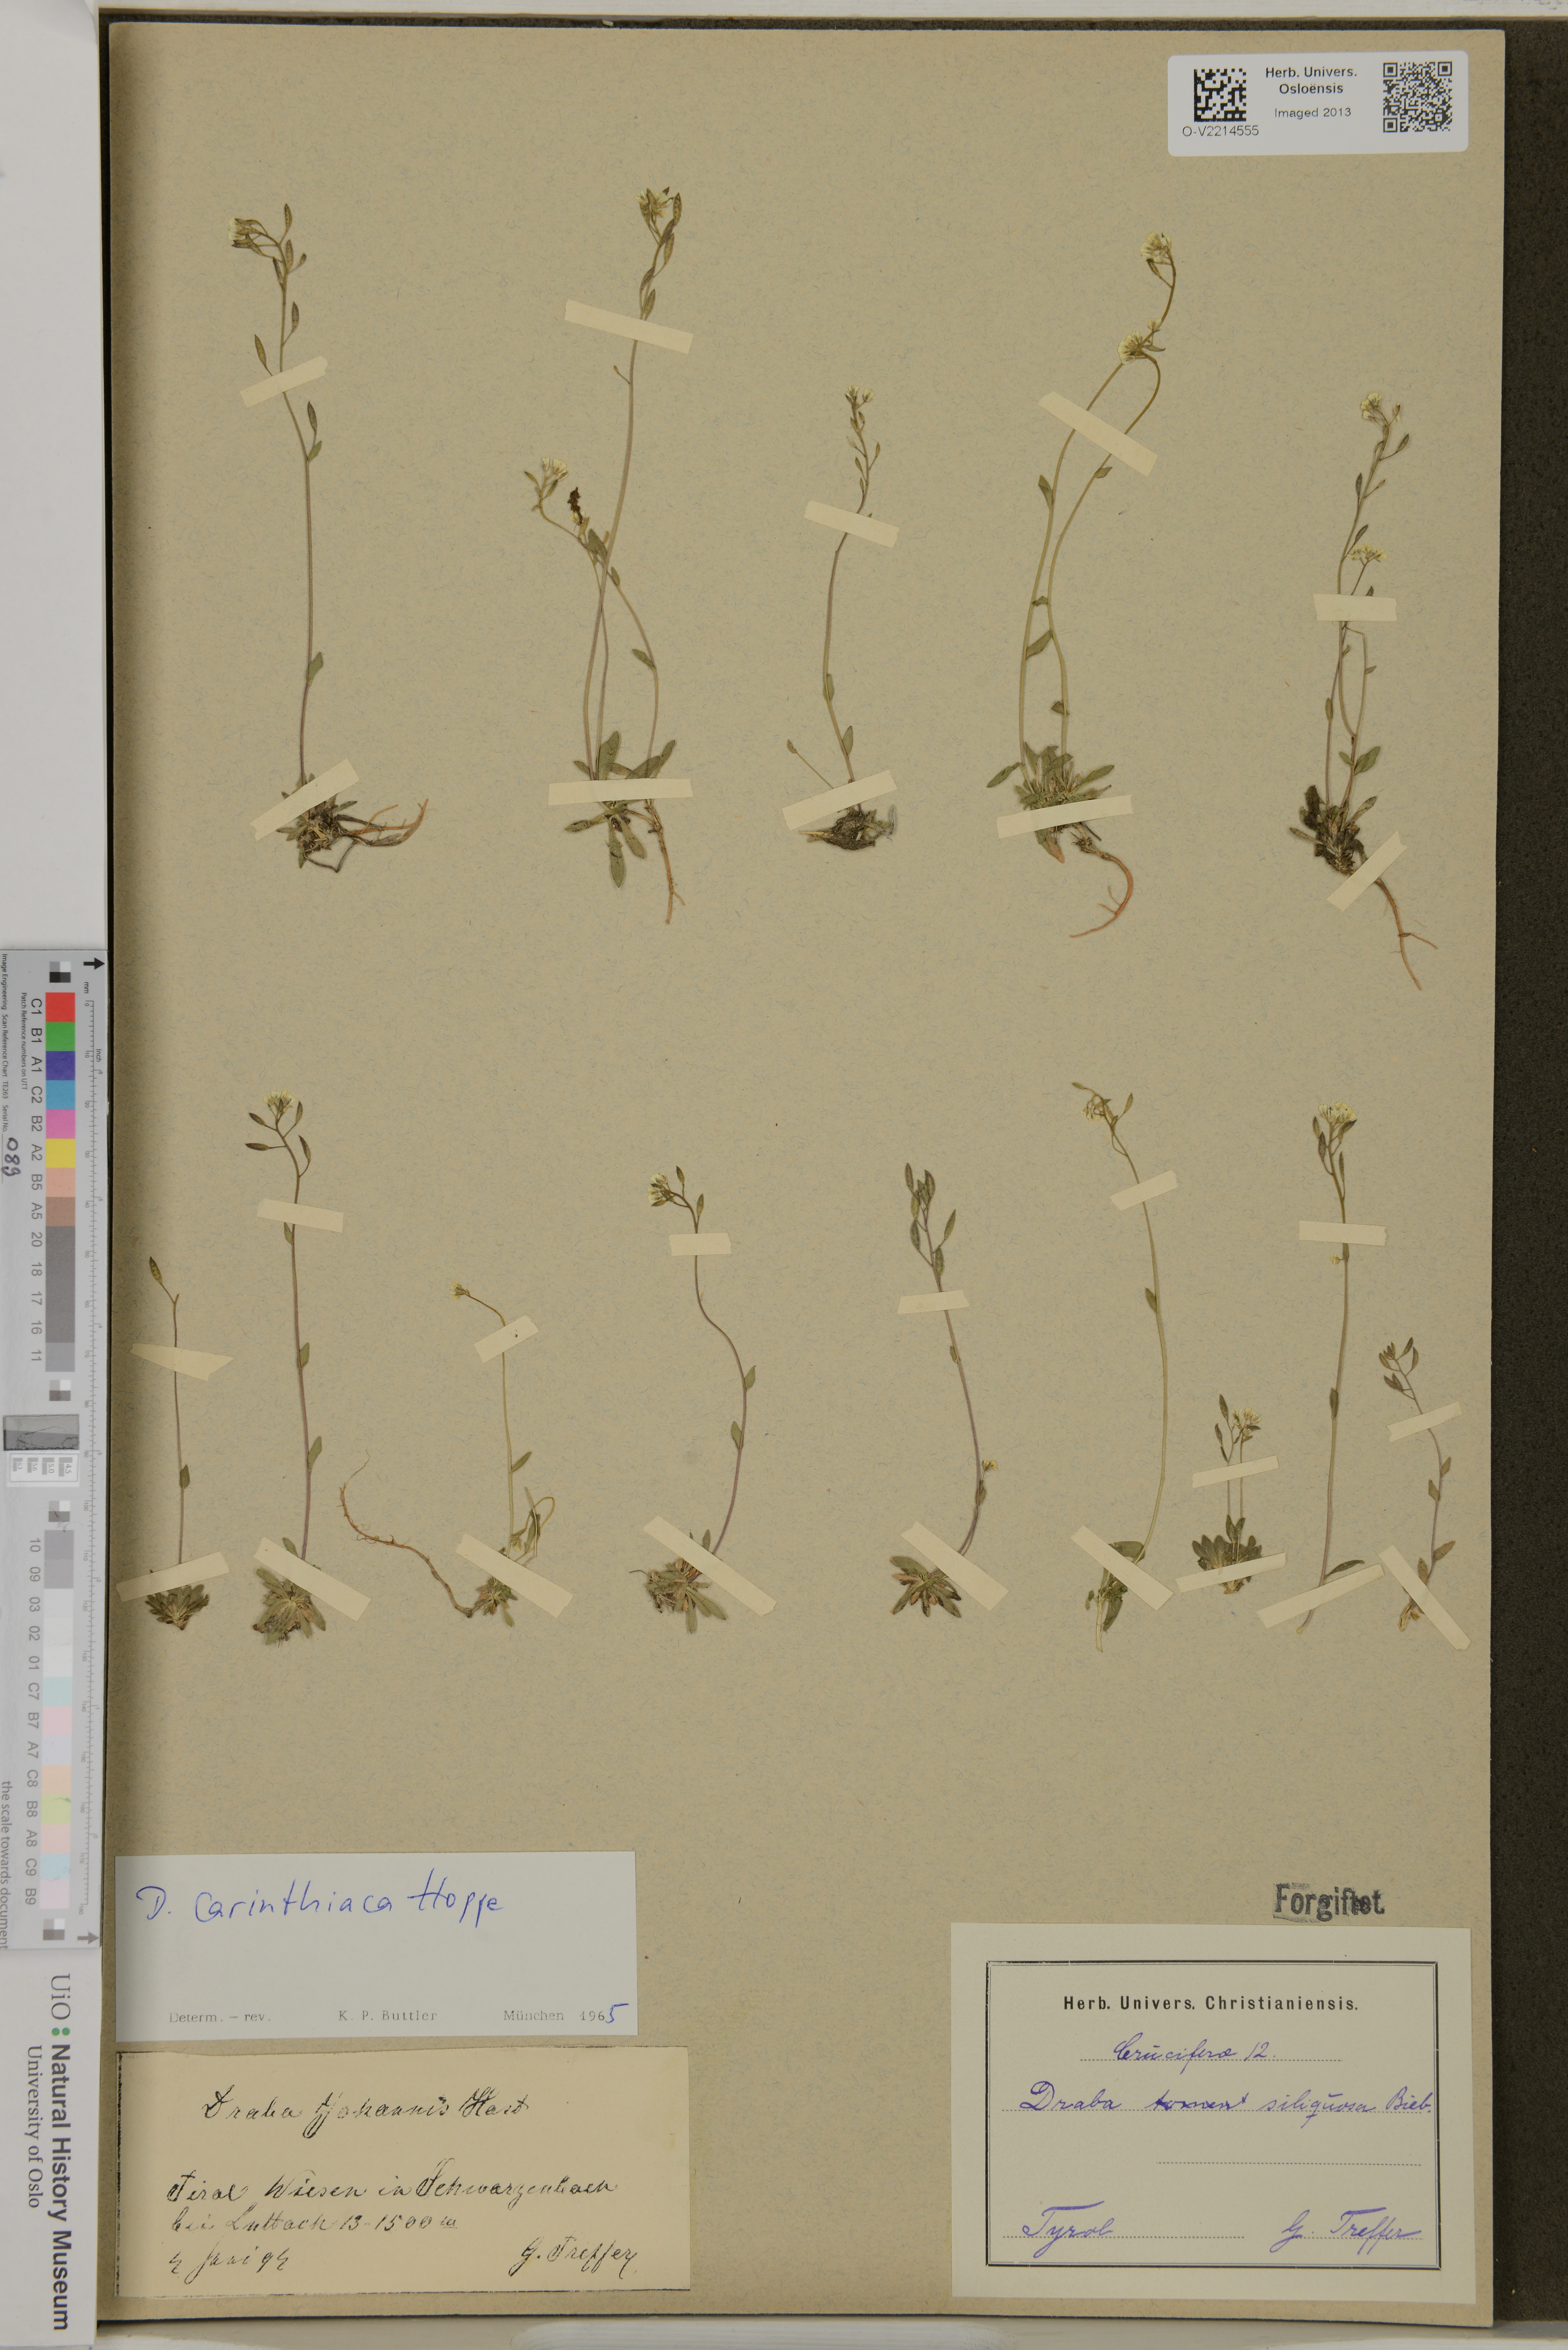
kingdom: Plantae
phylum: Tracheophyta
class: Magnoliopsida
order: Brassicales
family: Brassicaceae
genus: Draba
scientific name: Draba siliquosa
